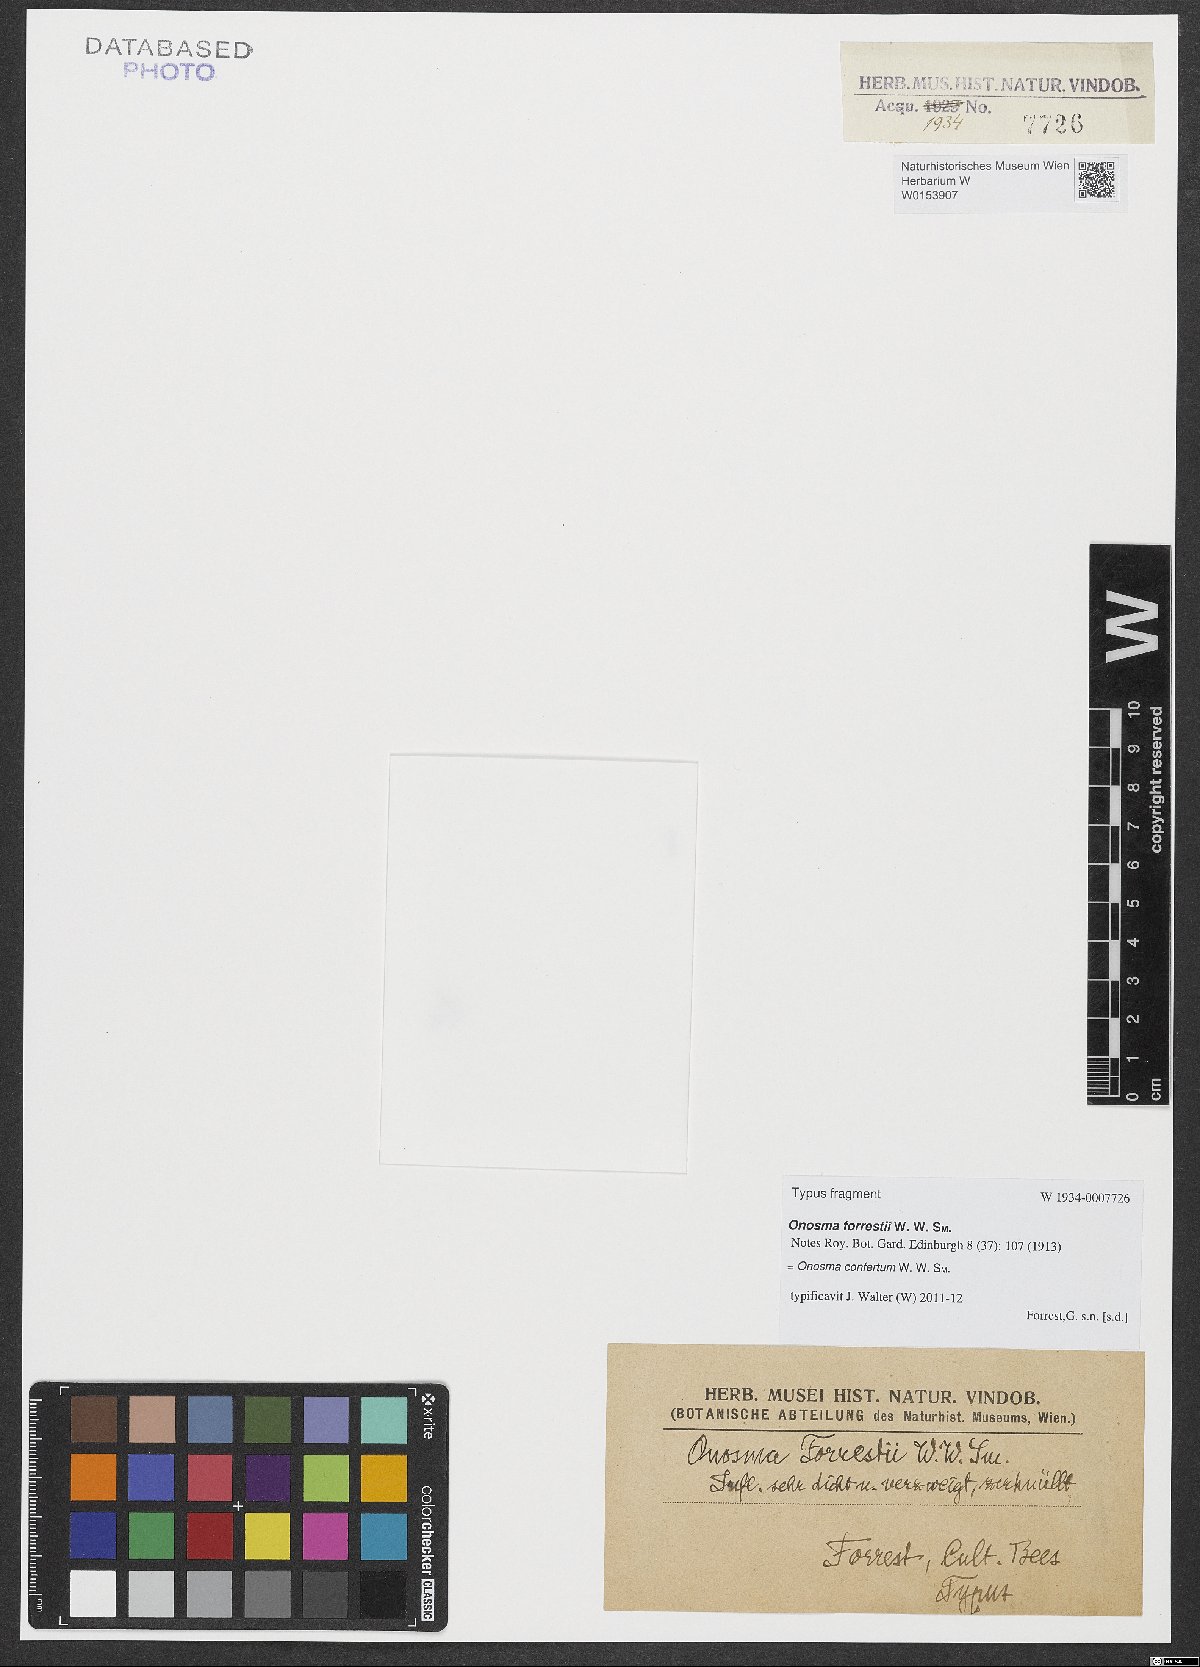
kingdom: Plantae
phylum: Tracheophyta
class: Magnoliopsida
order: Boraginales
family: Boraginaceae
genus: Maharanga
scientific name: Maharanga conferta
